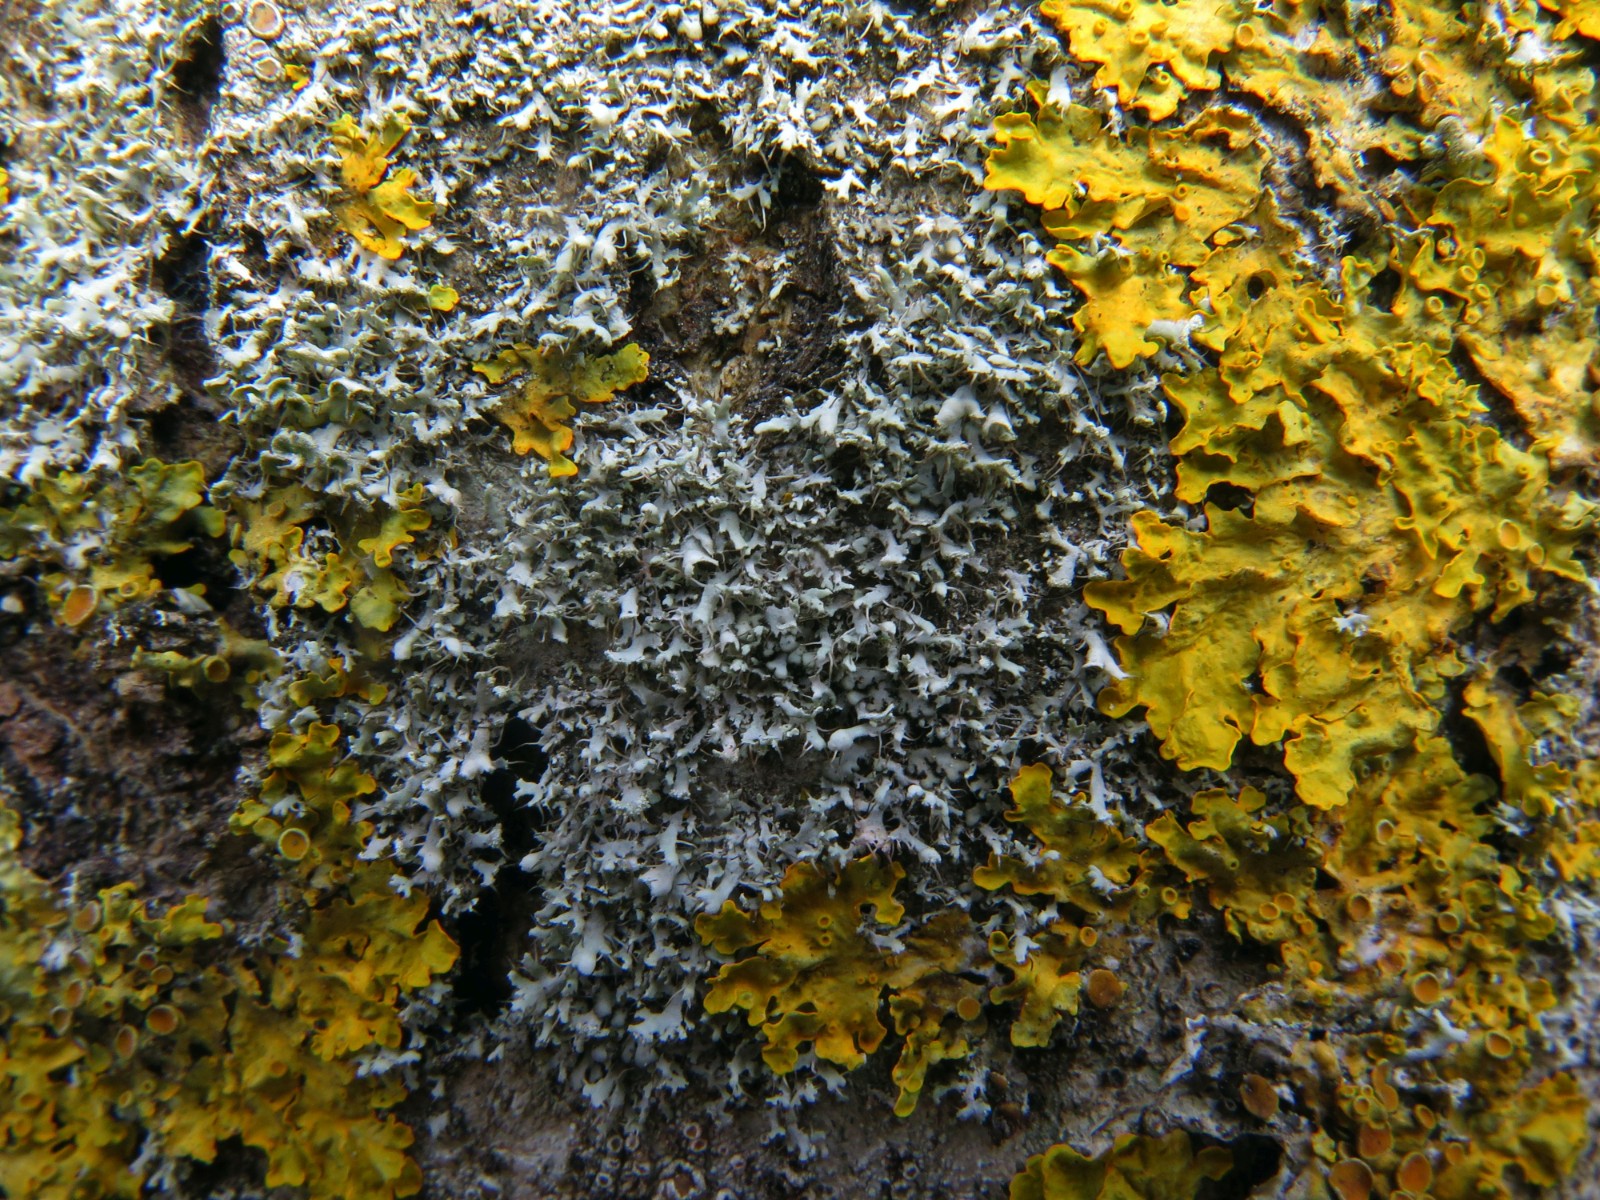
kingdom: Fungi
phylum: Ascomycota
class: Lecanoromycetes
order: Caliciales
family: Physciaceae
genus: Physcia
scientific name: Physcia tenella
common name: spæd rosetlav
